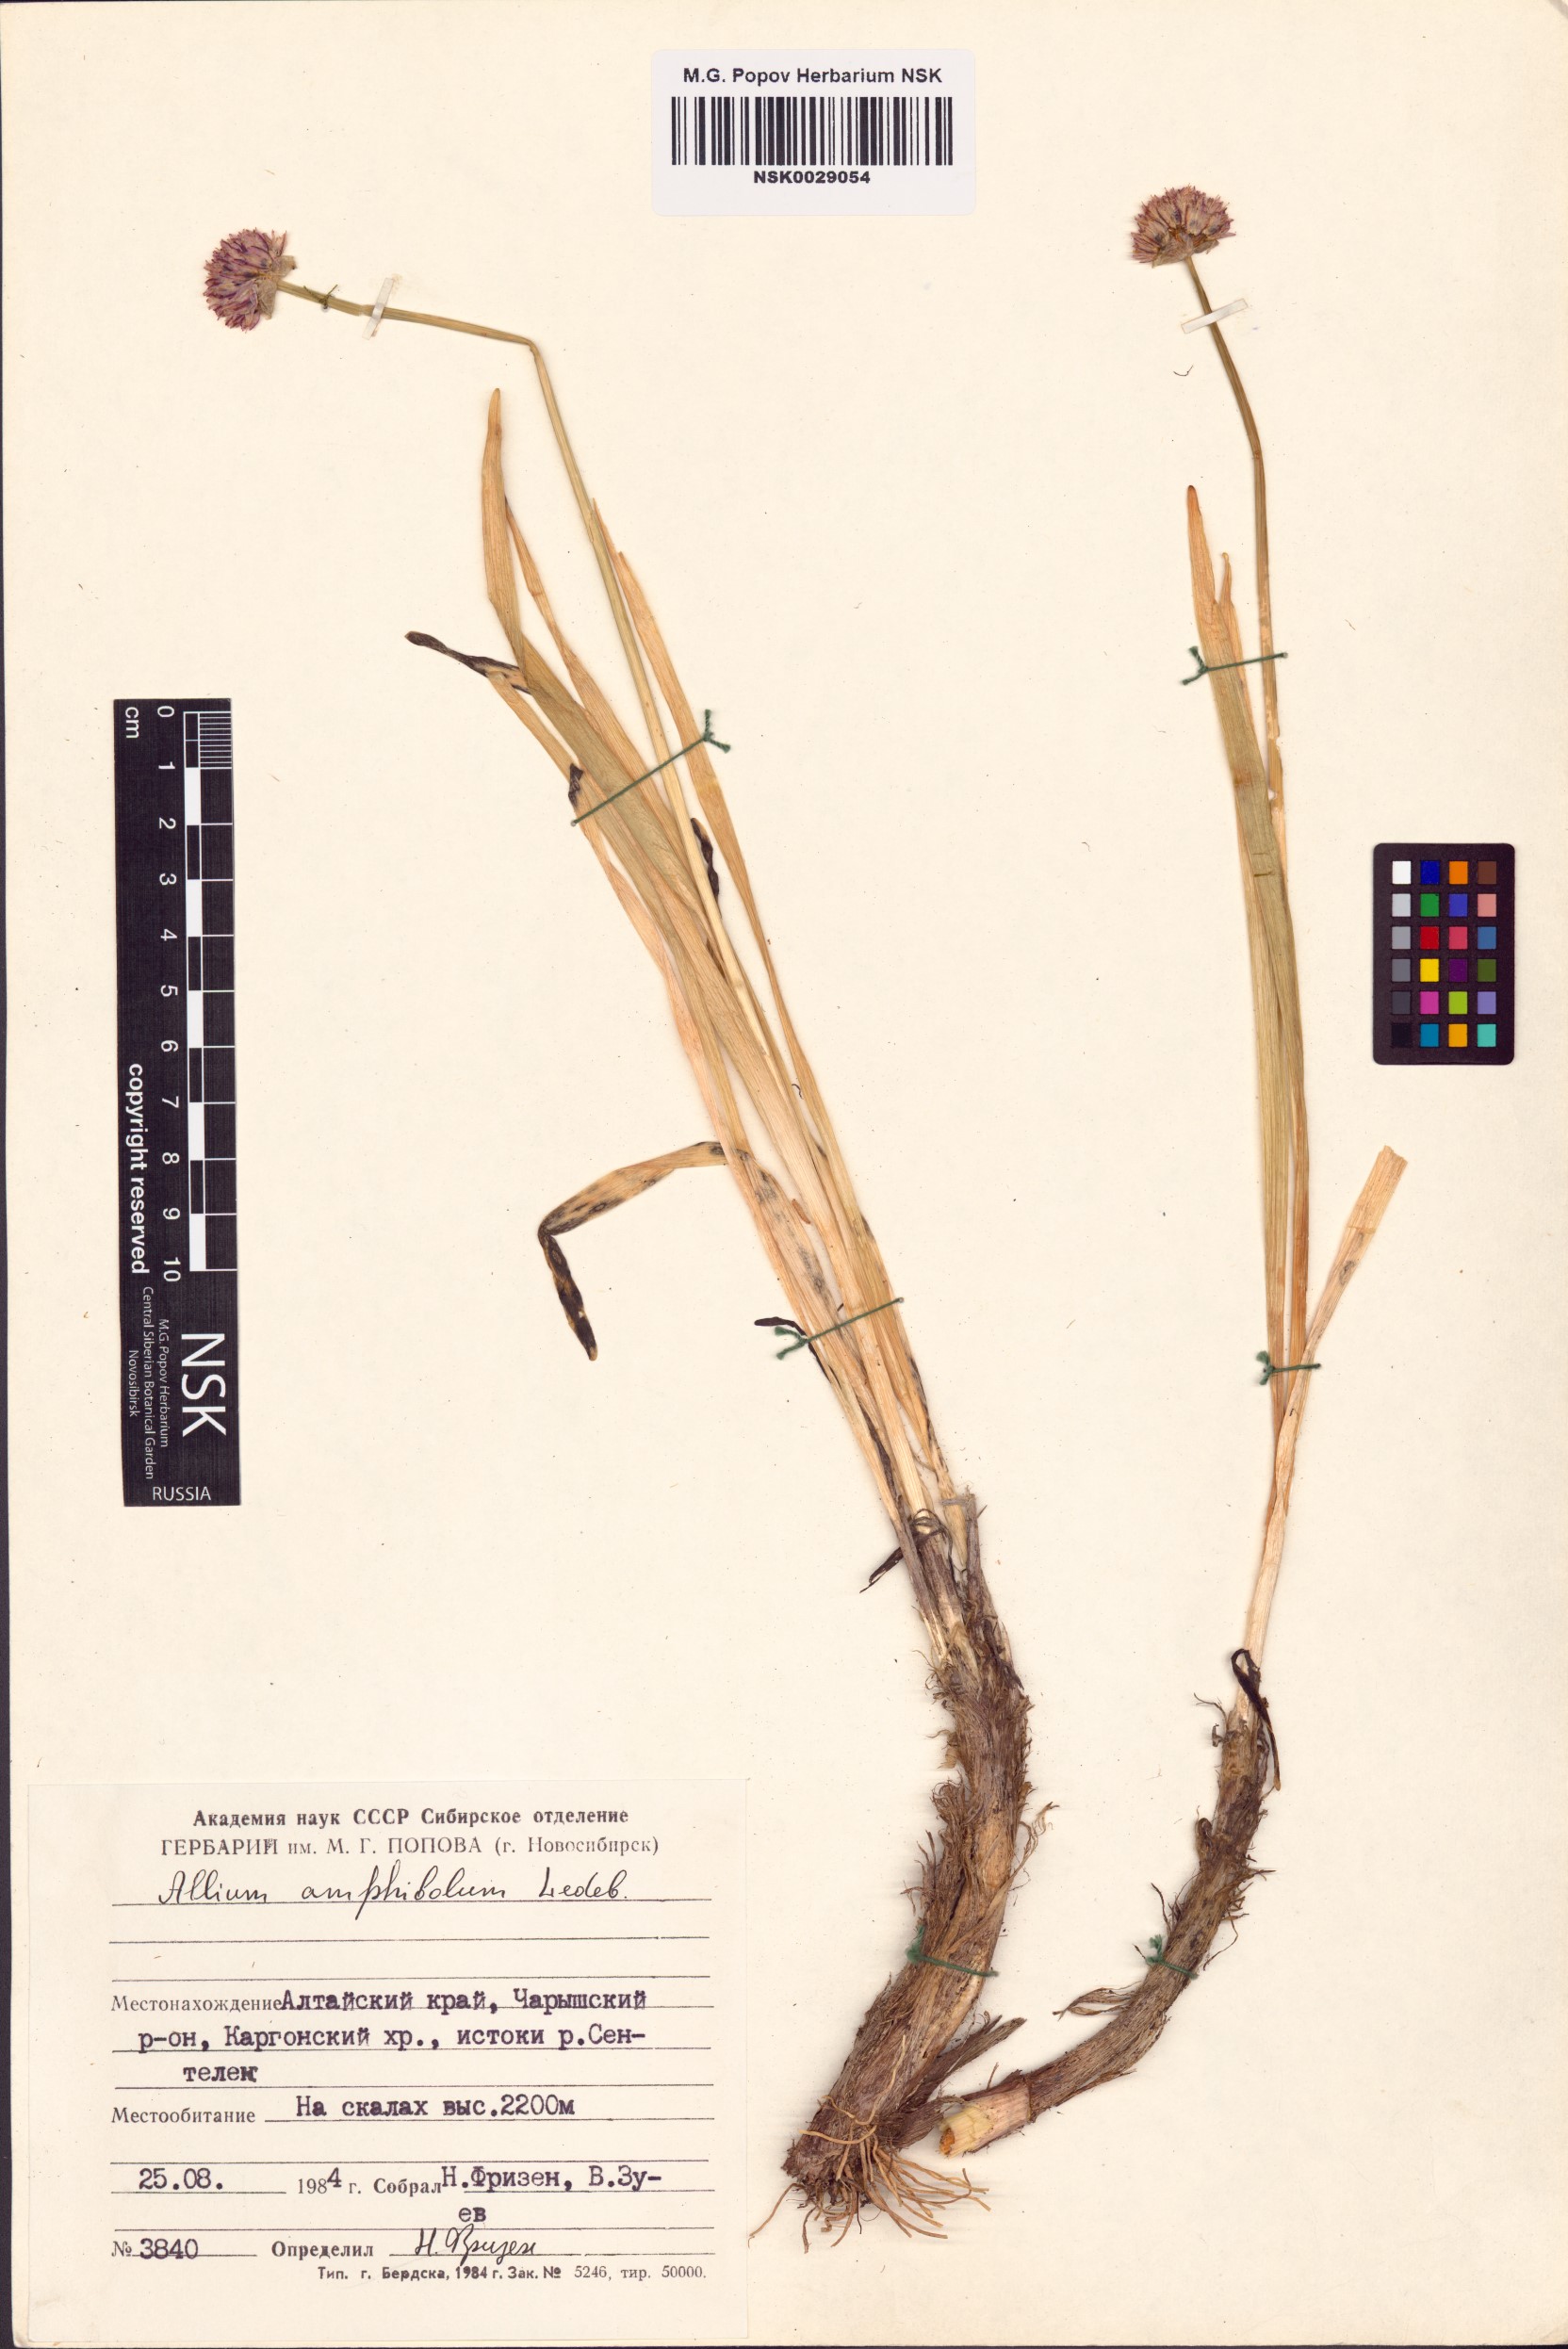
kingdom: Plantae
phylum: Tracheophyta
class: Liliopsida
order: Asparagales
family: Amaryllidaceae
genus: Allium
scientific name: Allium amphibolum
